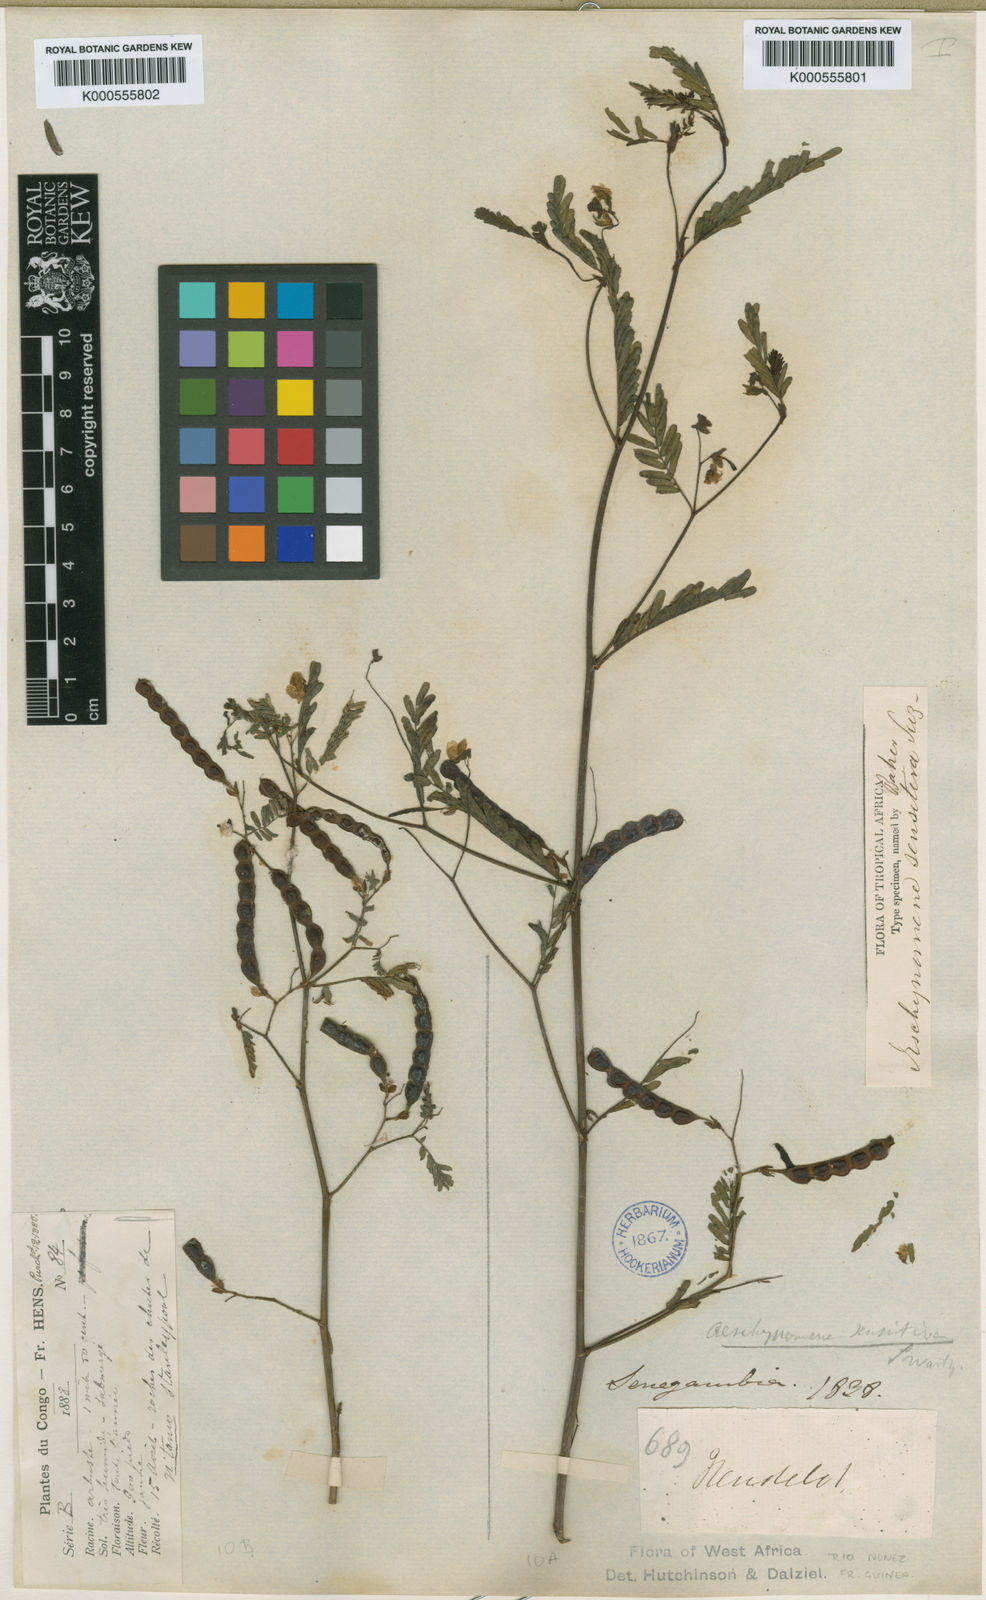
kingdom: Plantae
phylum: Tracheophyta
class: Magnoliopsida
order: Fabales
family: Fabaceae
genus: Aeschynomene
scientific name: Aeschynomene sensitiva
